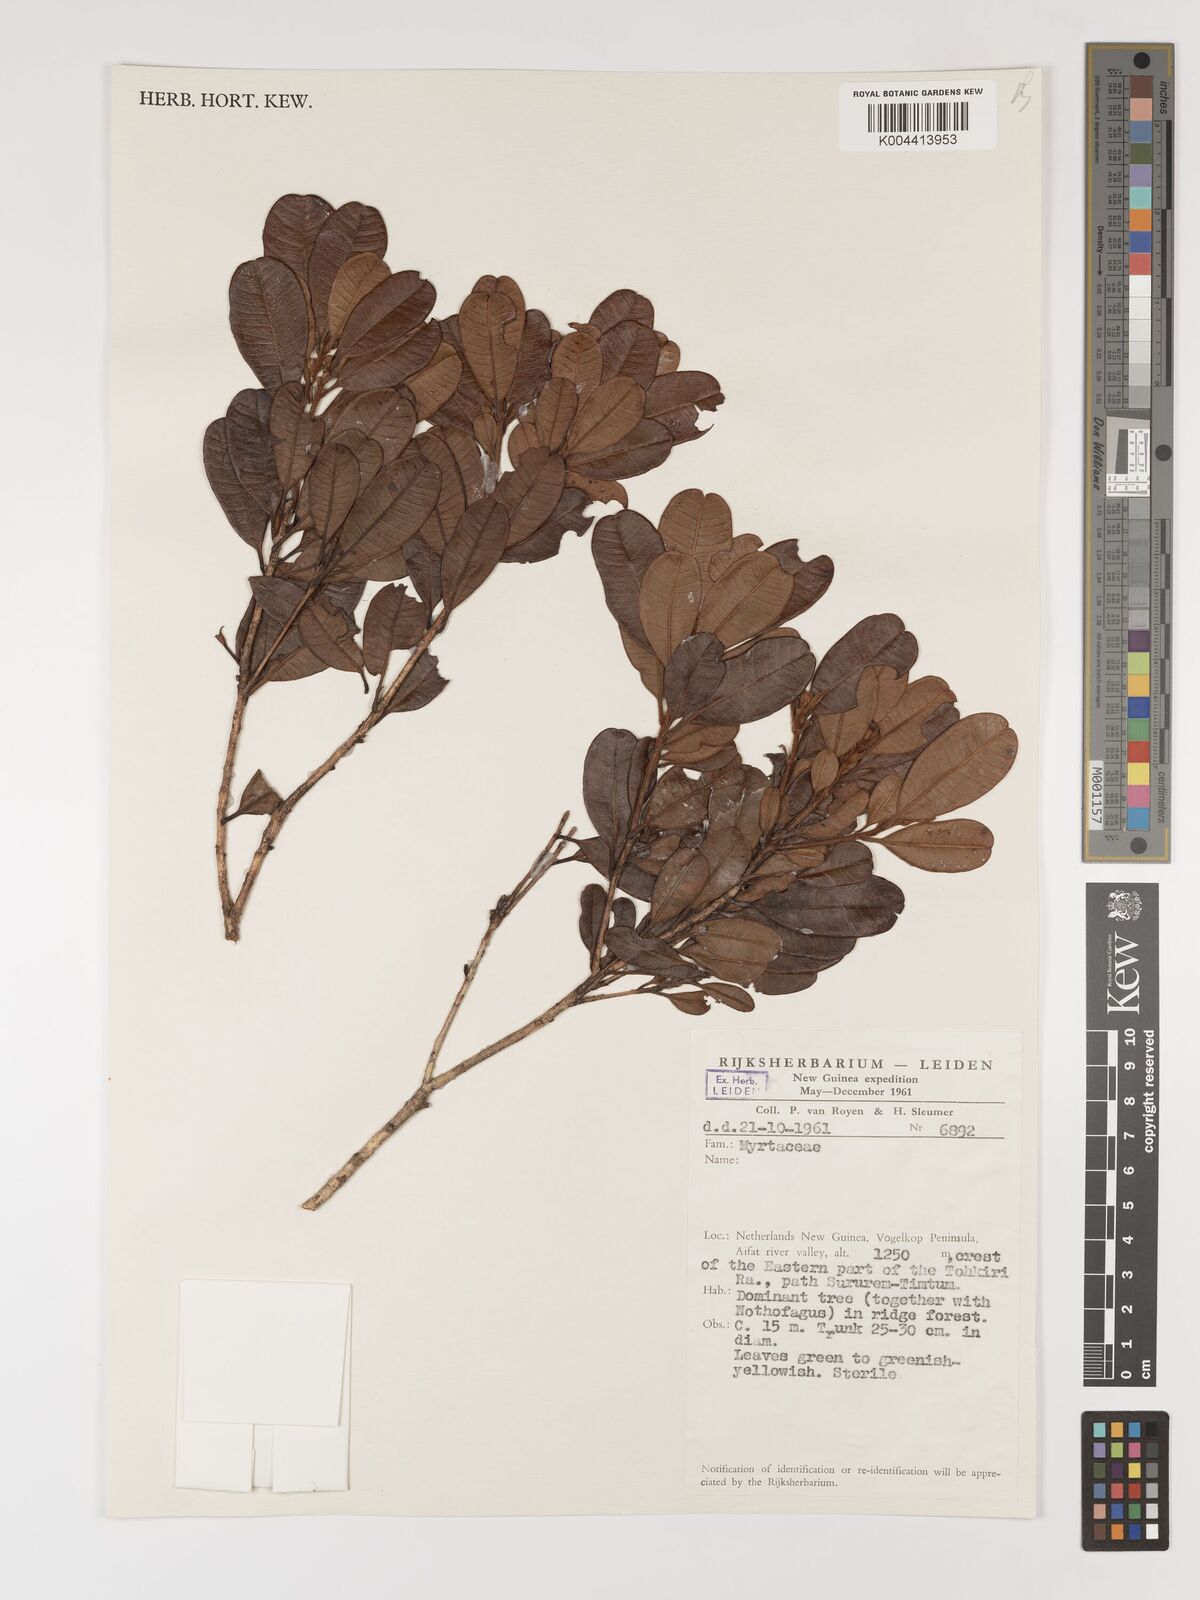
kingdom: Plantae
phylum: Tracheophyta
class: Magnoliopsida
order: Myrtales
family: Myrtaceae
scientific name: Myrtaceae
